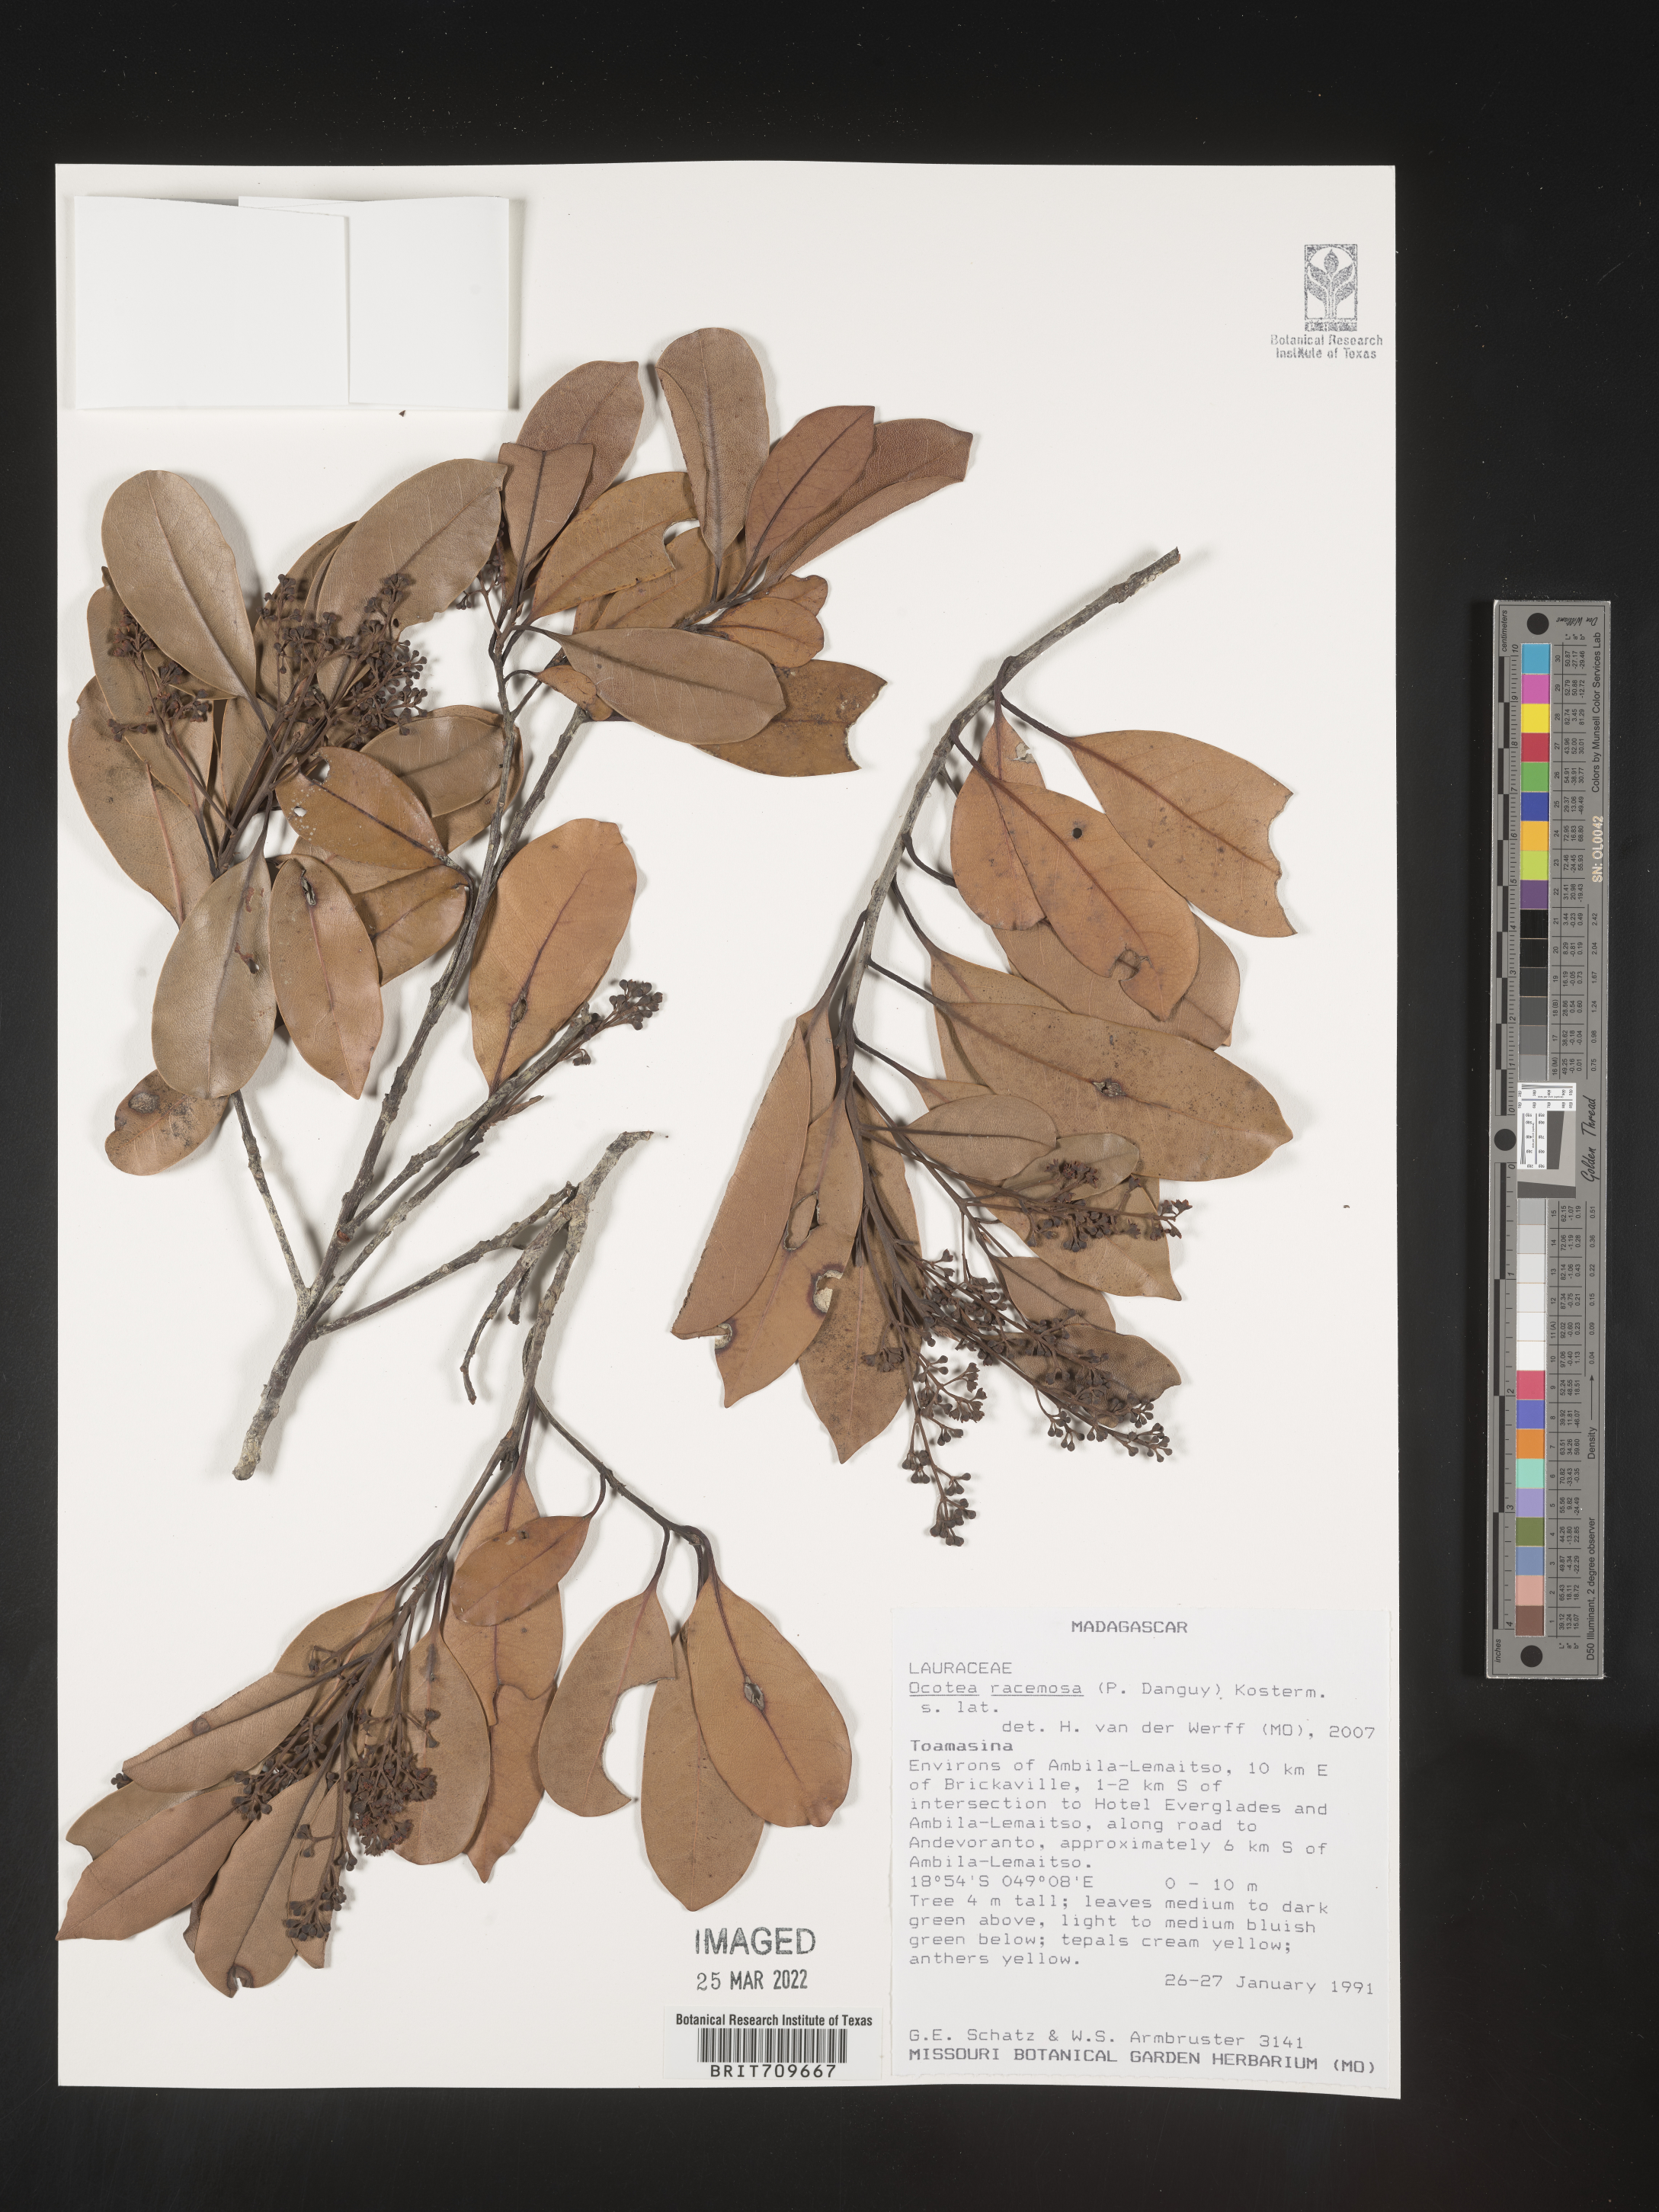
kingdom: Plantae
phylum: Tracheophyta
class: Magnoliopsida
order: Laurales
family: Lauraceae
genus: Ocotea
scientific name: Ocotea
